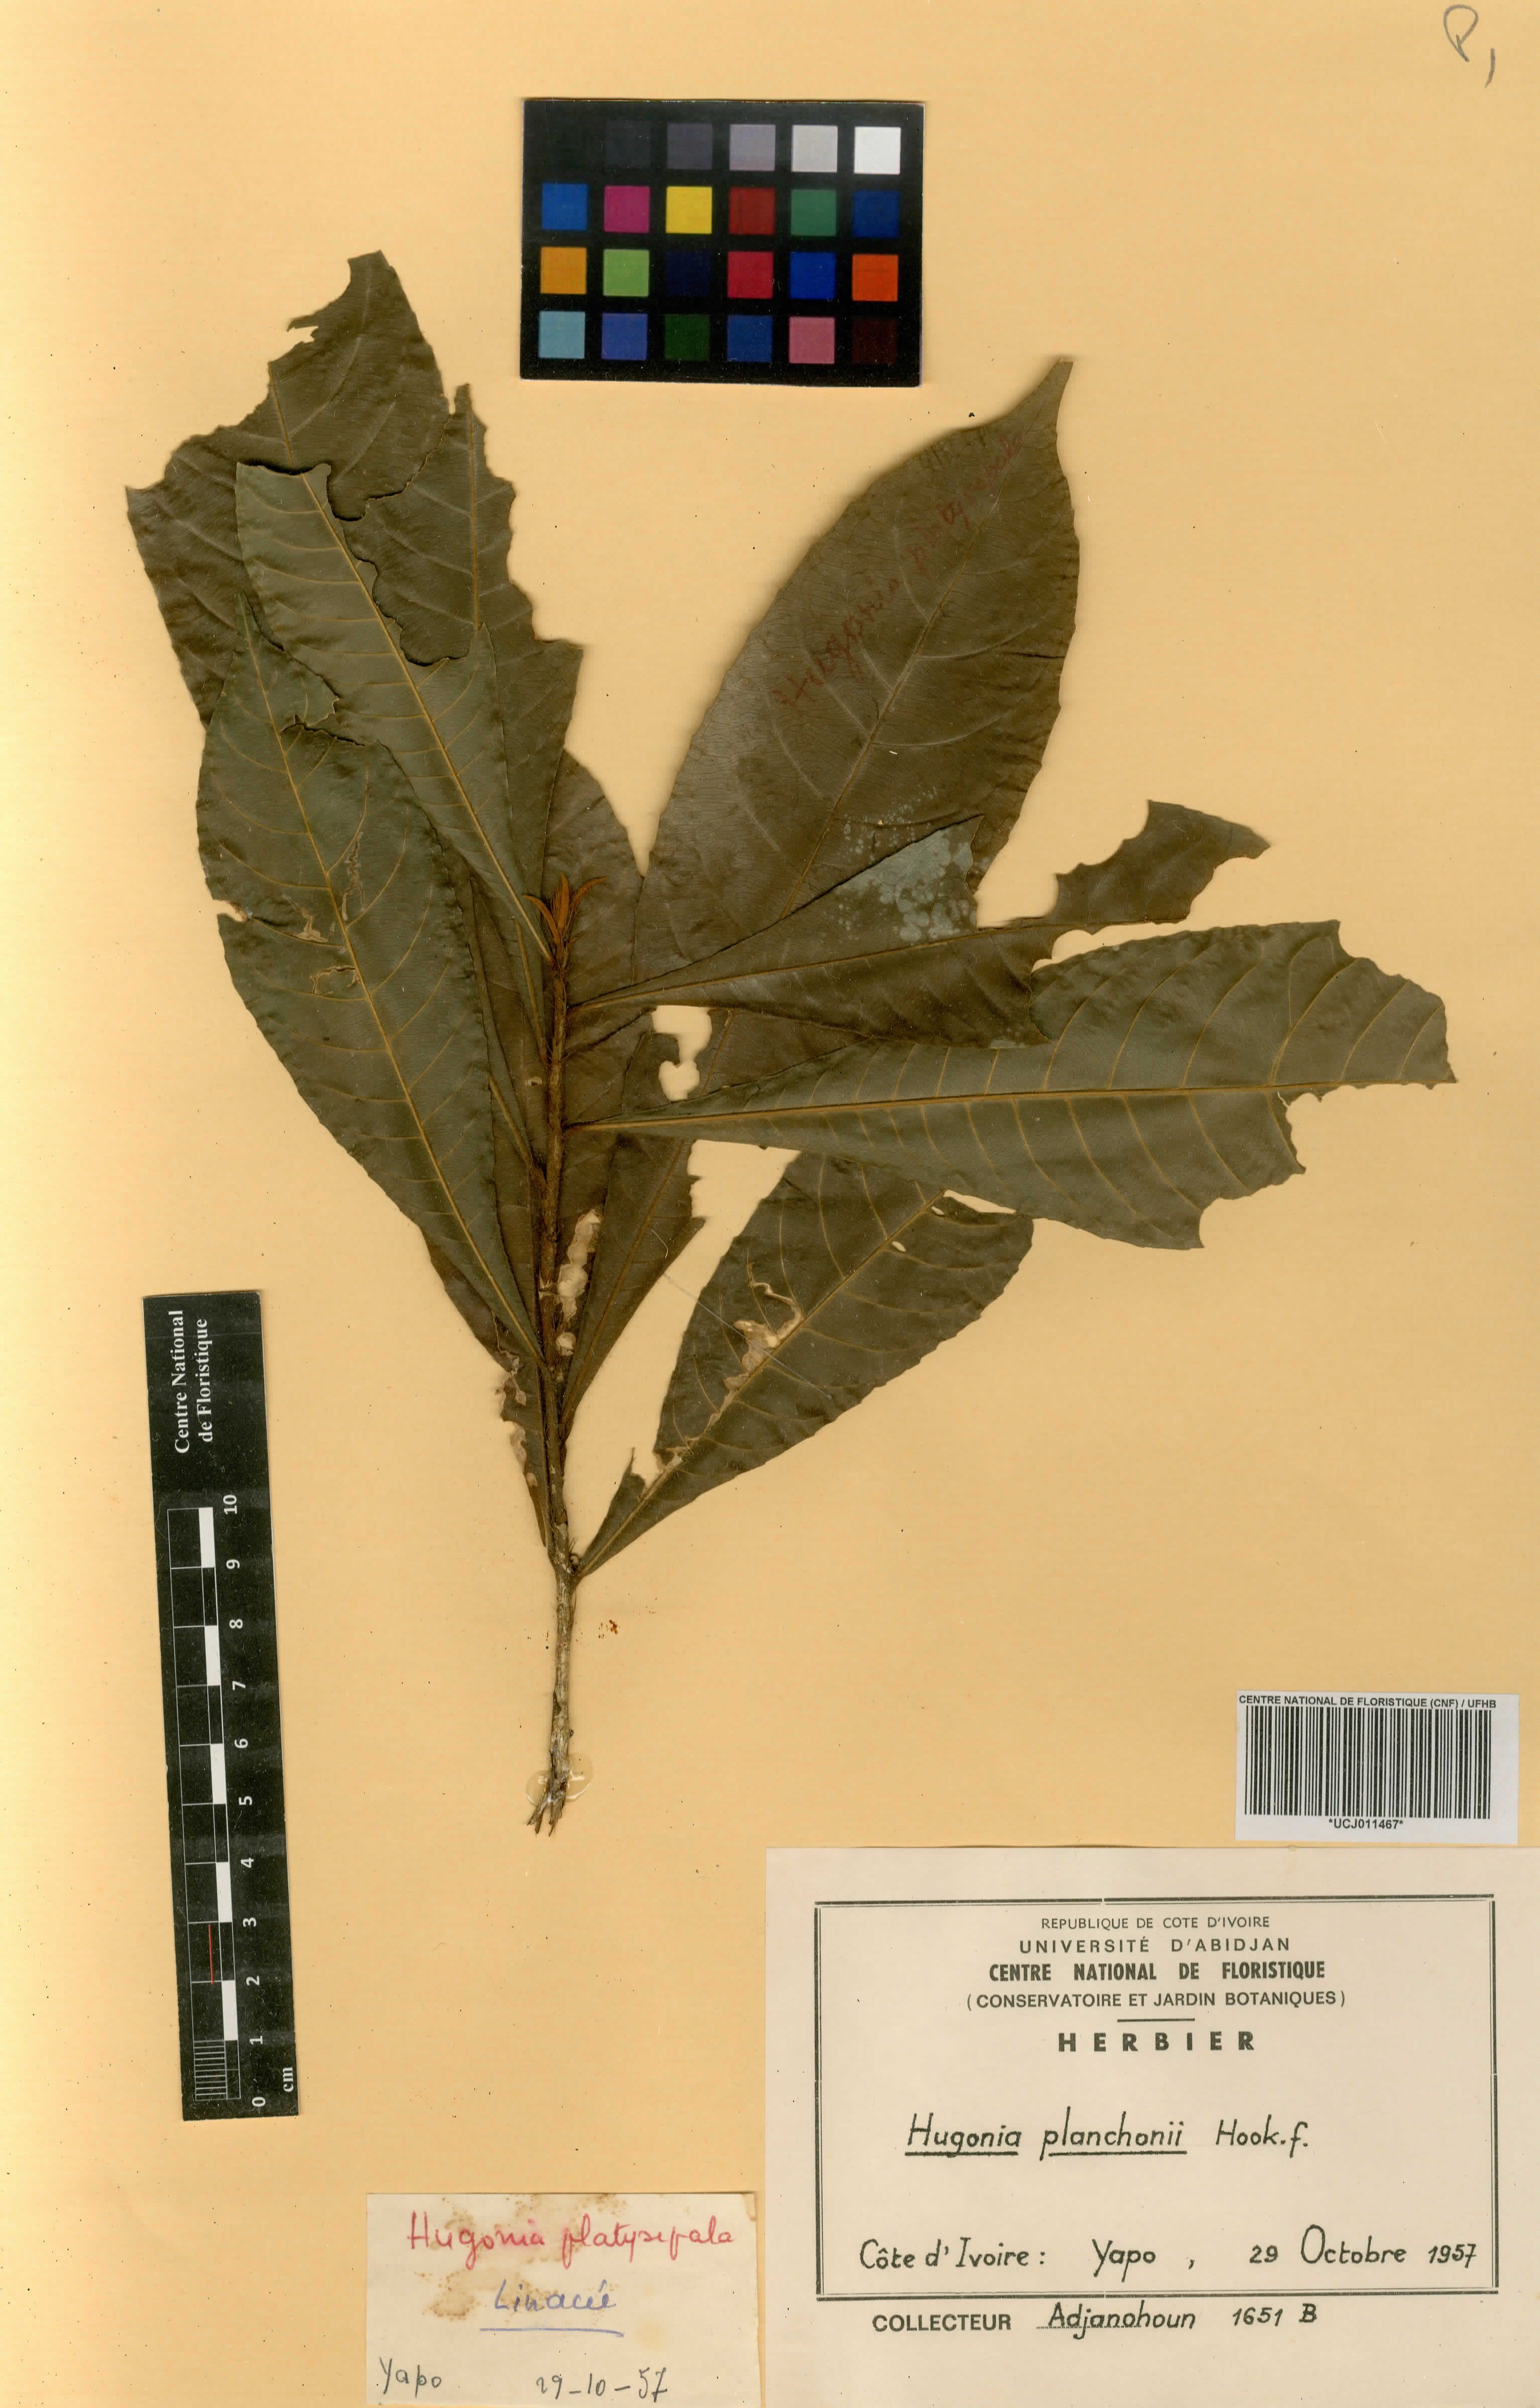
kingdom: Plantae
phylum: Tracheophyta
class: Magnoliopsida
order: Malpighiales
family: Linaceae
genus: Hugonia
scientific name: Hugonia planchonii
